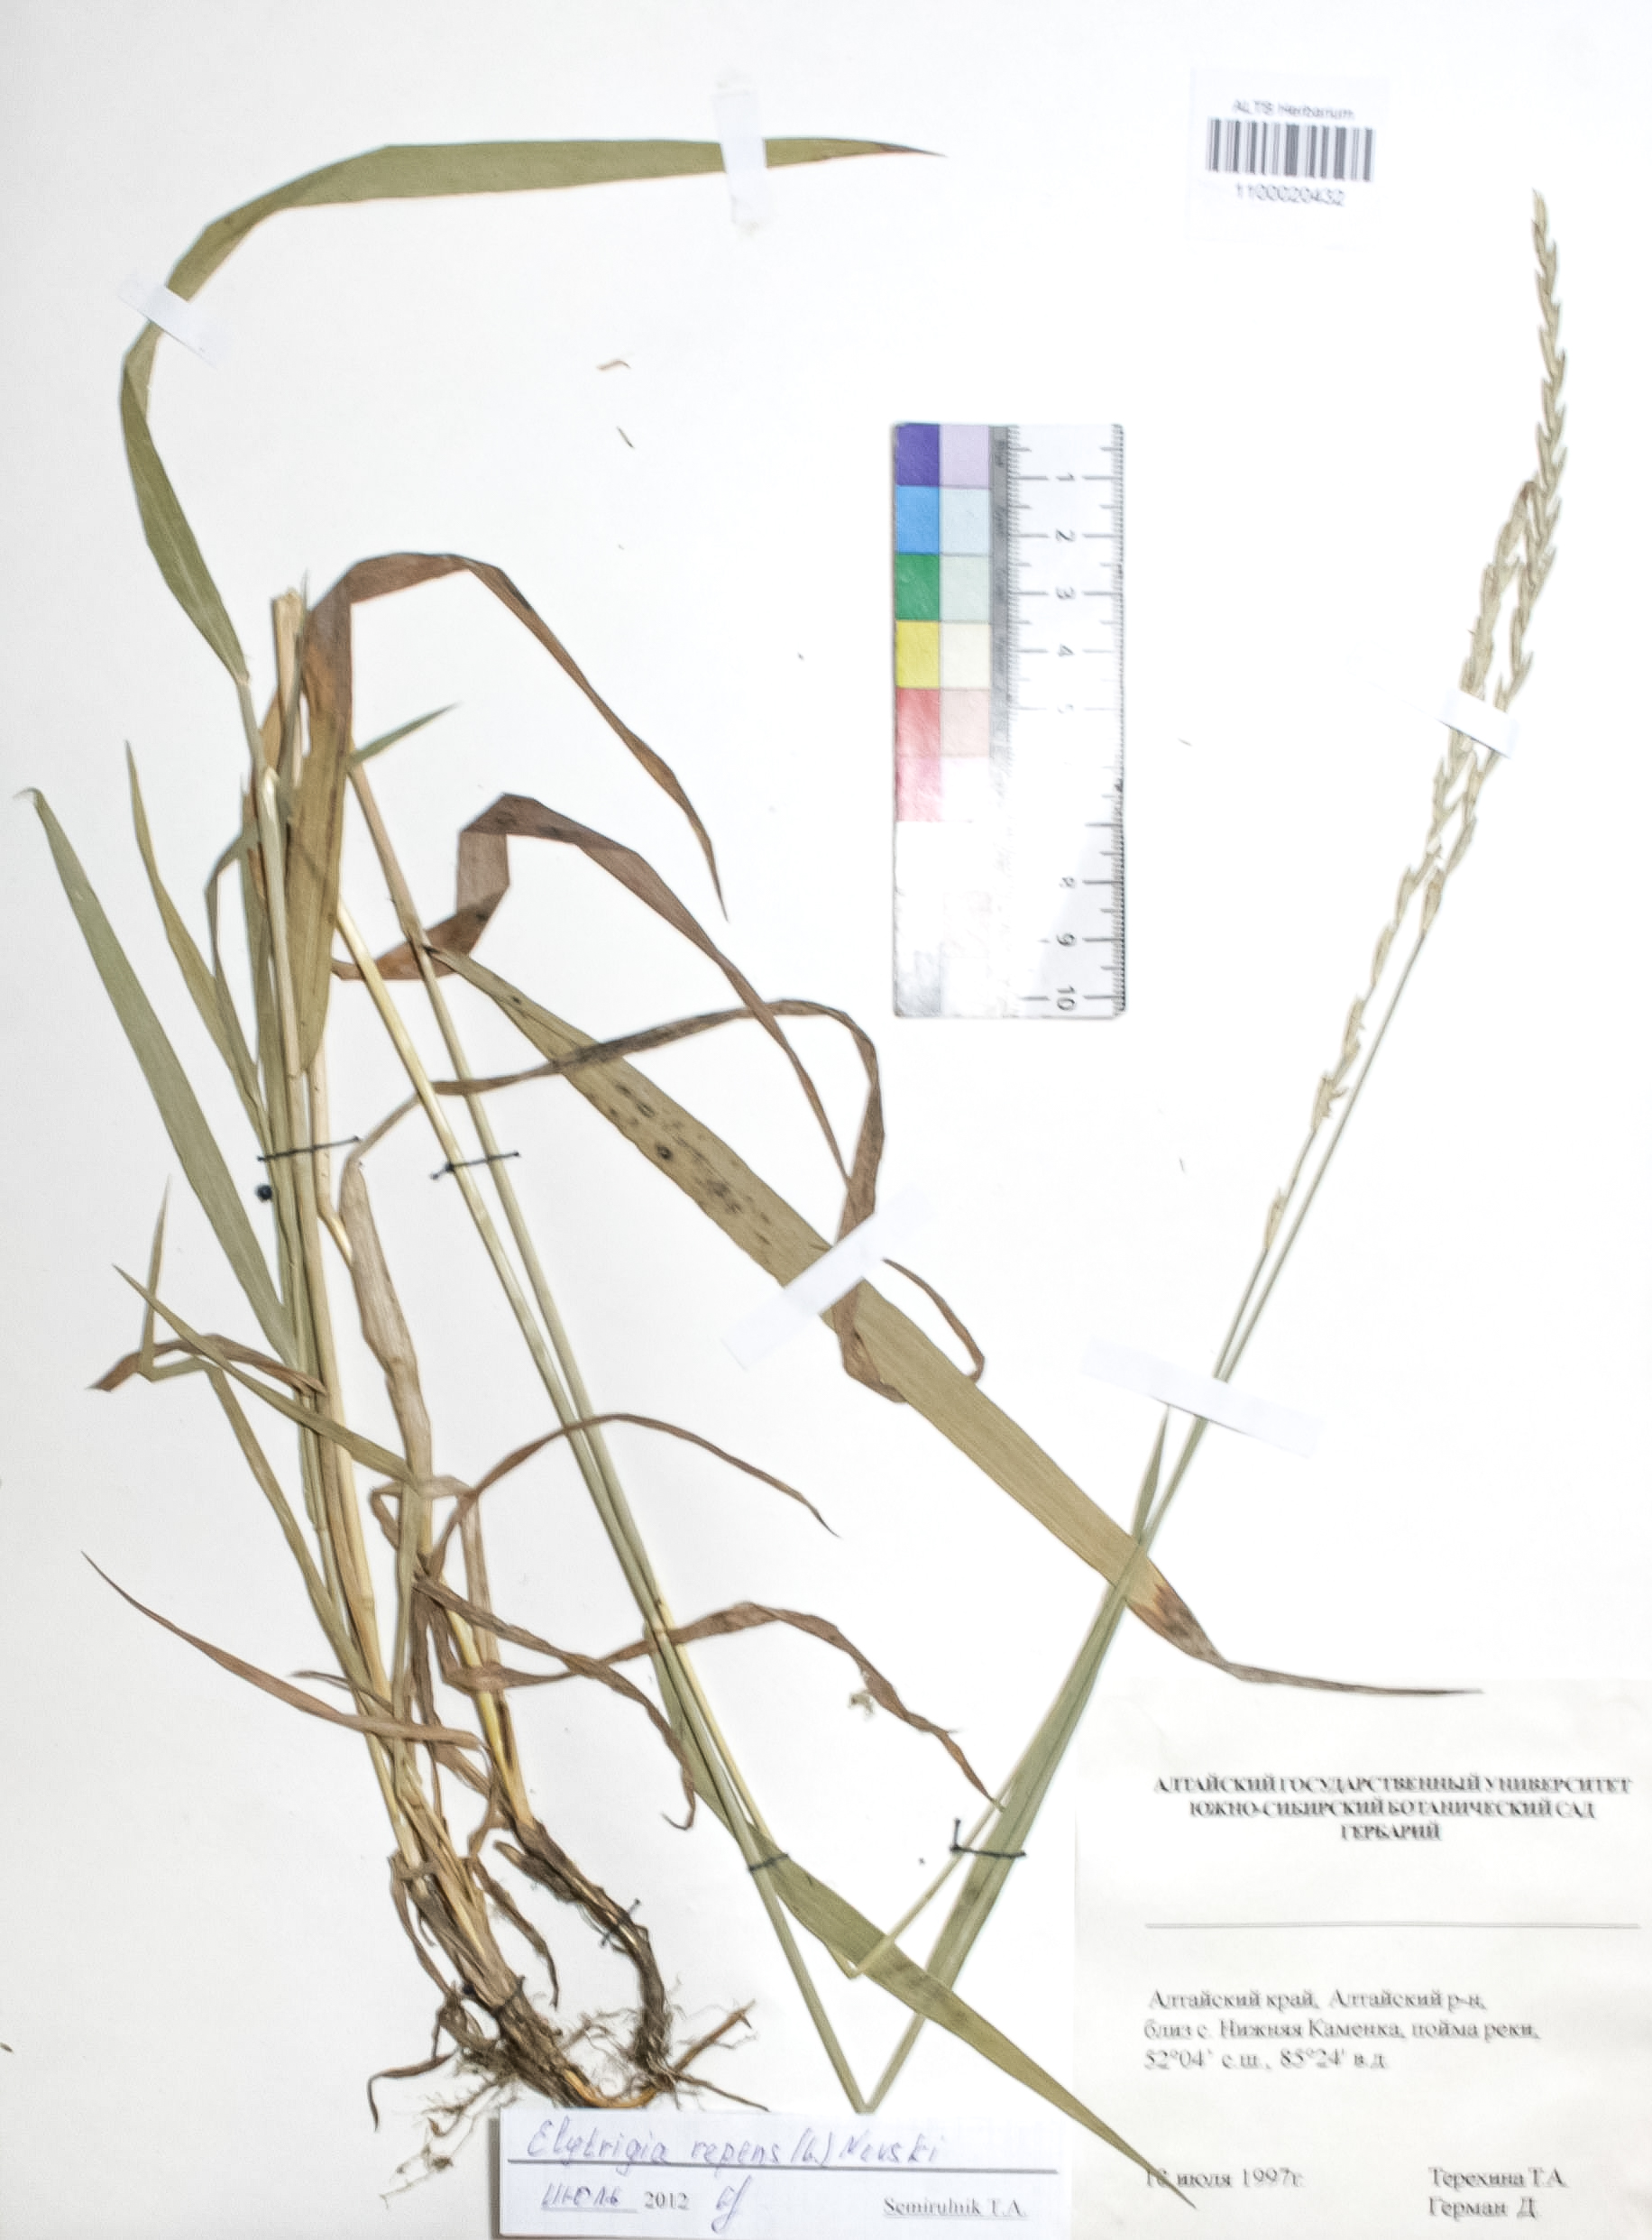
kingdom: Plantae
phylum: Tracheophyta
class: Liliopsida
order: Poales
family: Poaceae
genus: Elymus
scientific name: Elymus repens
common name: Quackgrass
